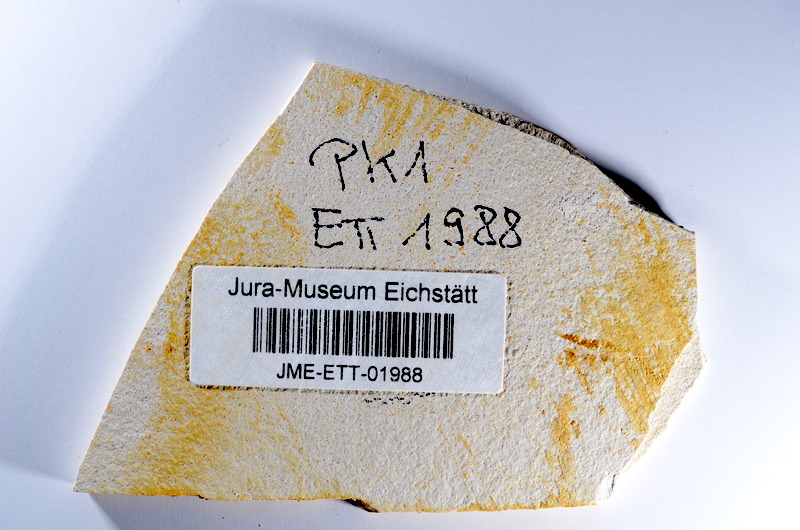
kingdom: Animalia
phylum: Chordata
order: Salmoniformes
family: Orthogonikleithridae
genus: Orthogonikleithrus
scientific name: Orthogonikleithrus hoelli
